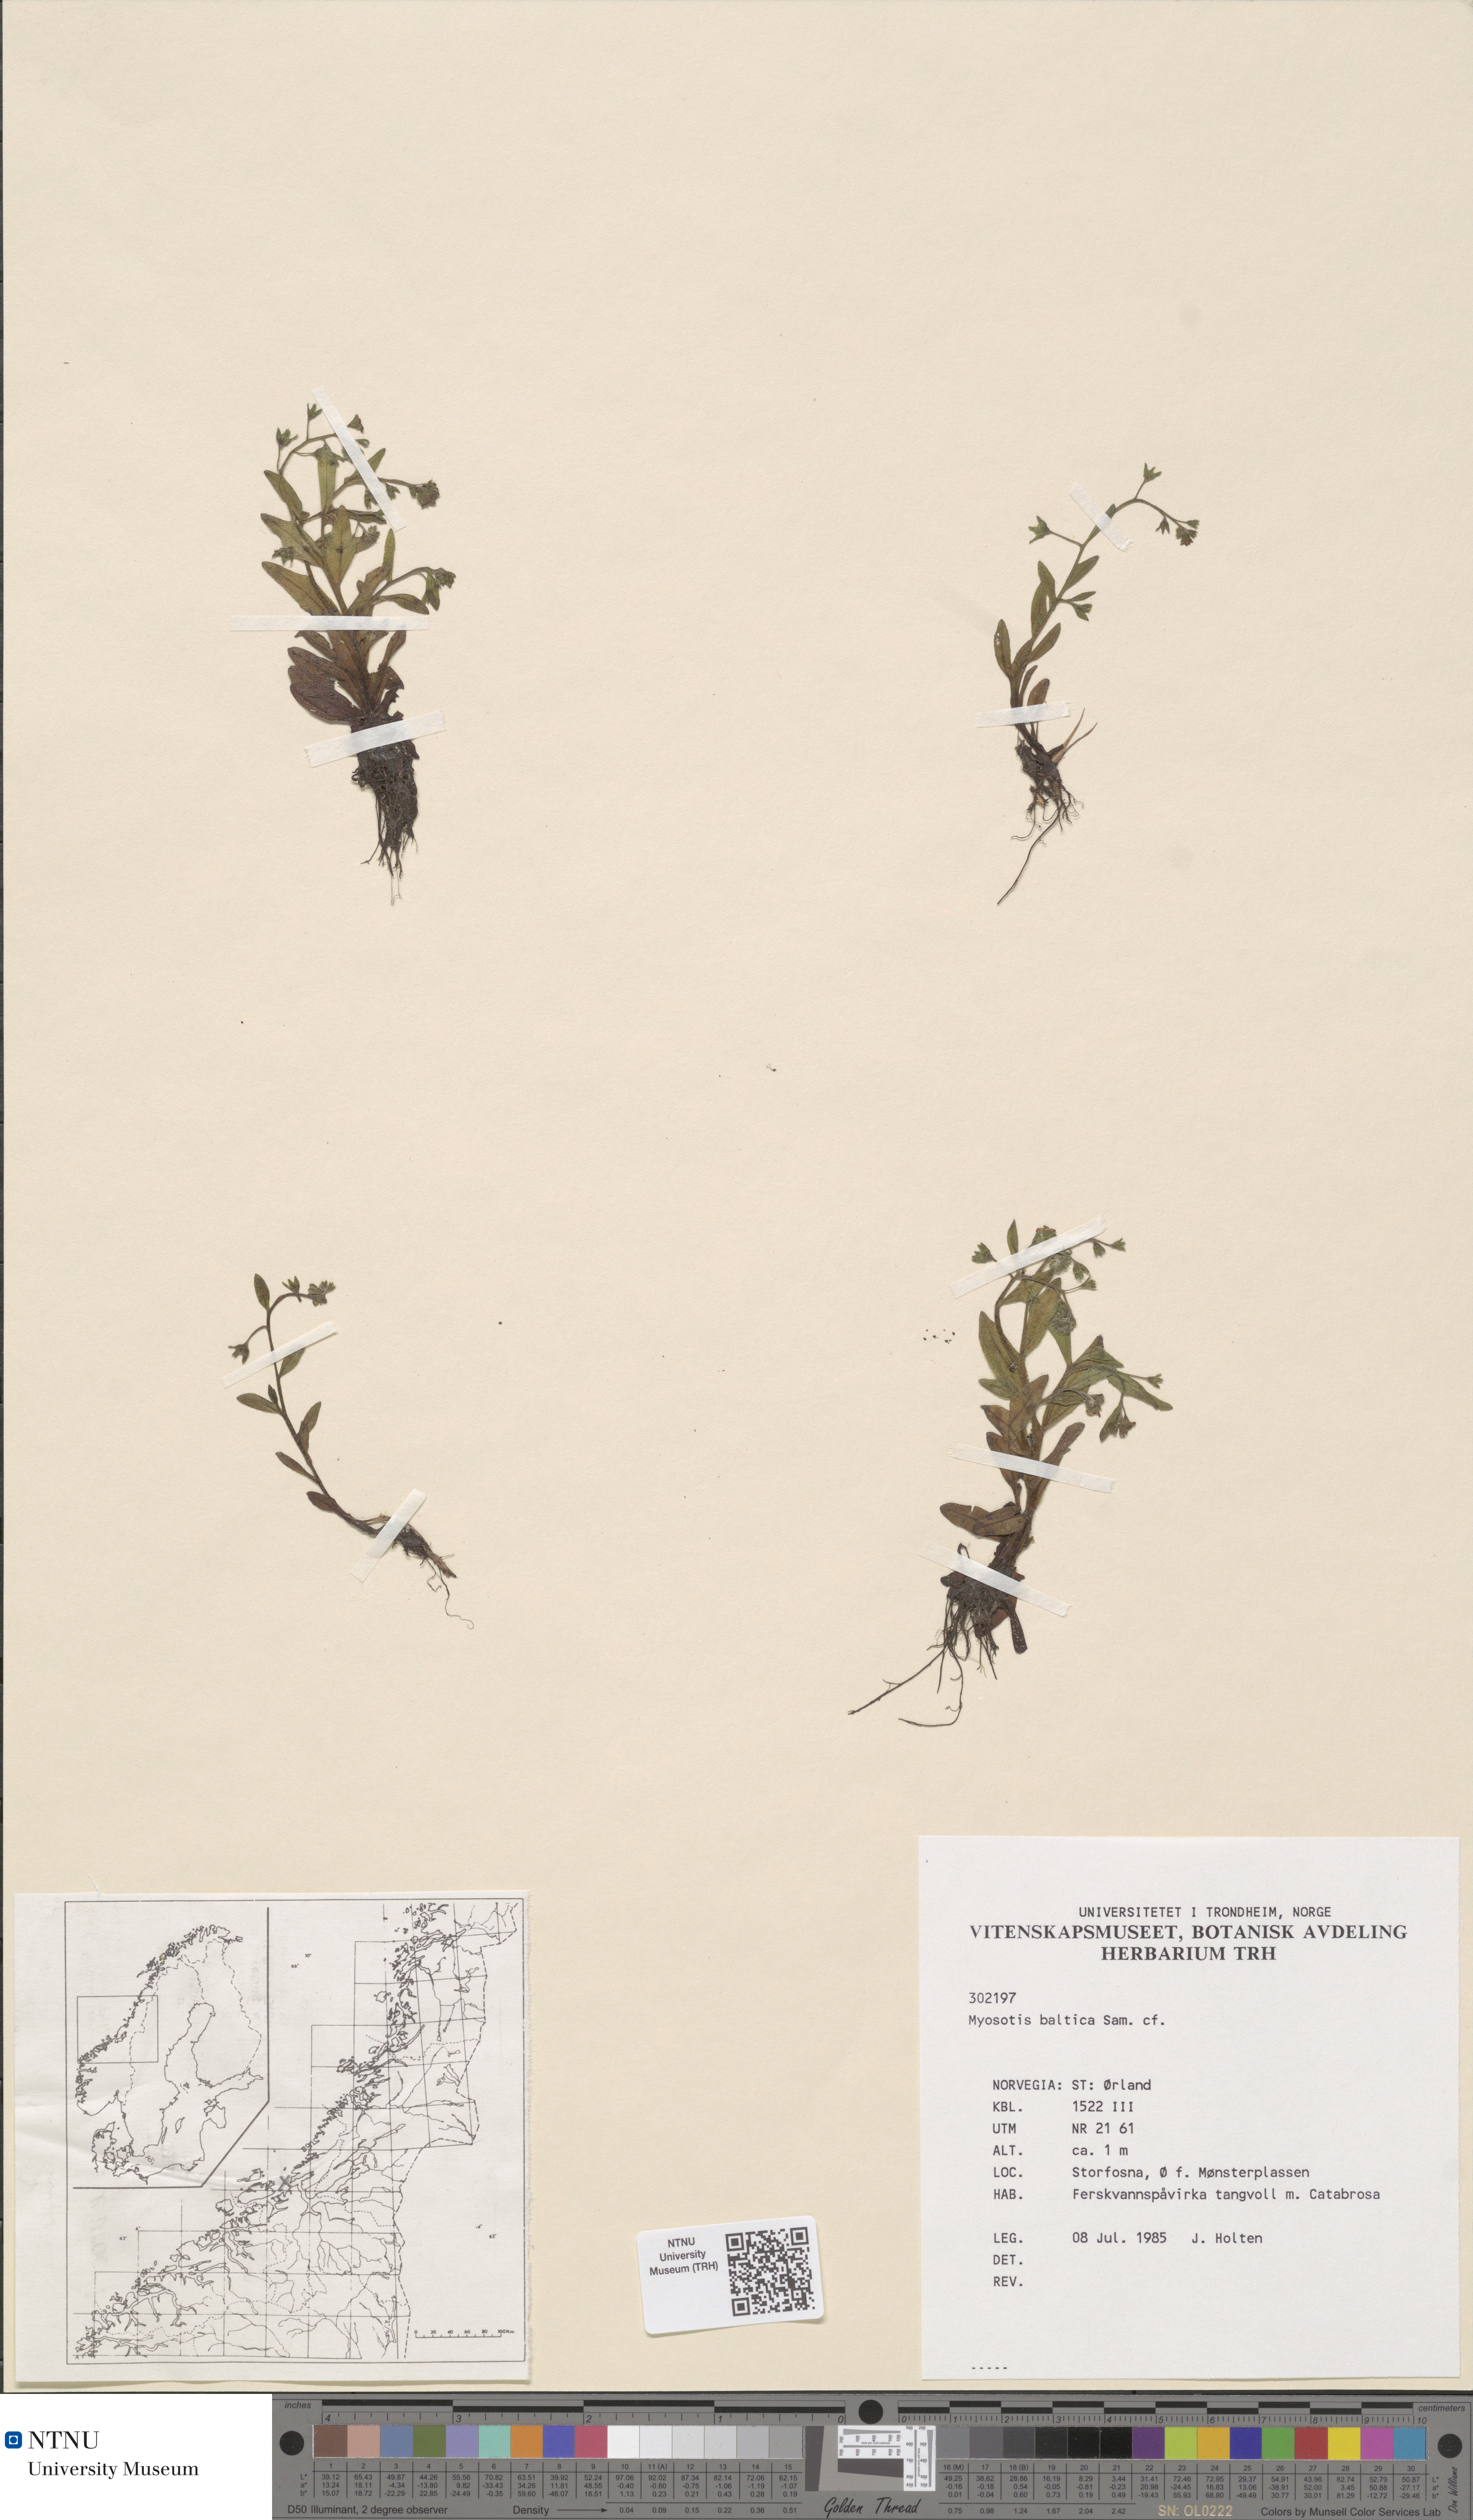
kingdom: Plantae
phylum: Tracheophyta
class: Magnoliopsida
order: Boraginales
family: Boraginaceae
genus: Myosotis
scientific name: Myosotis laxa
